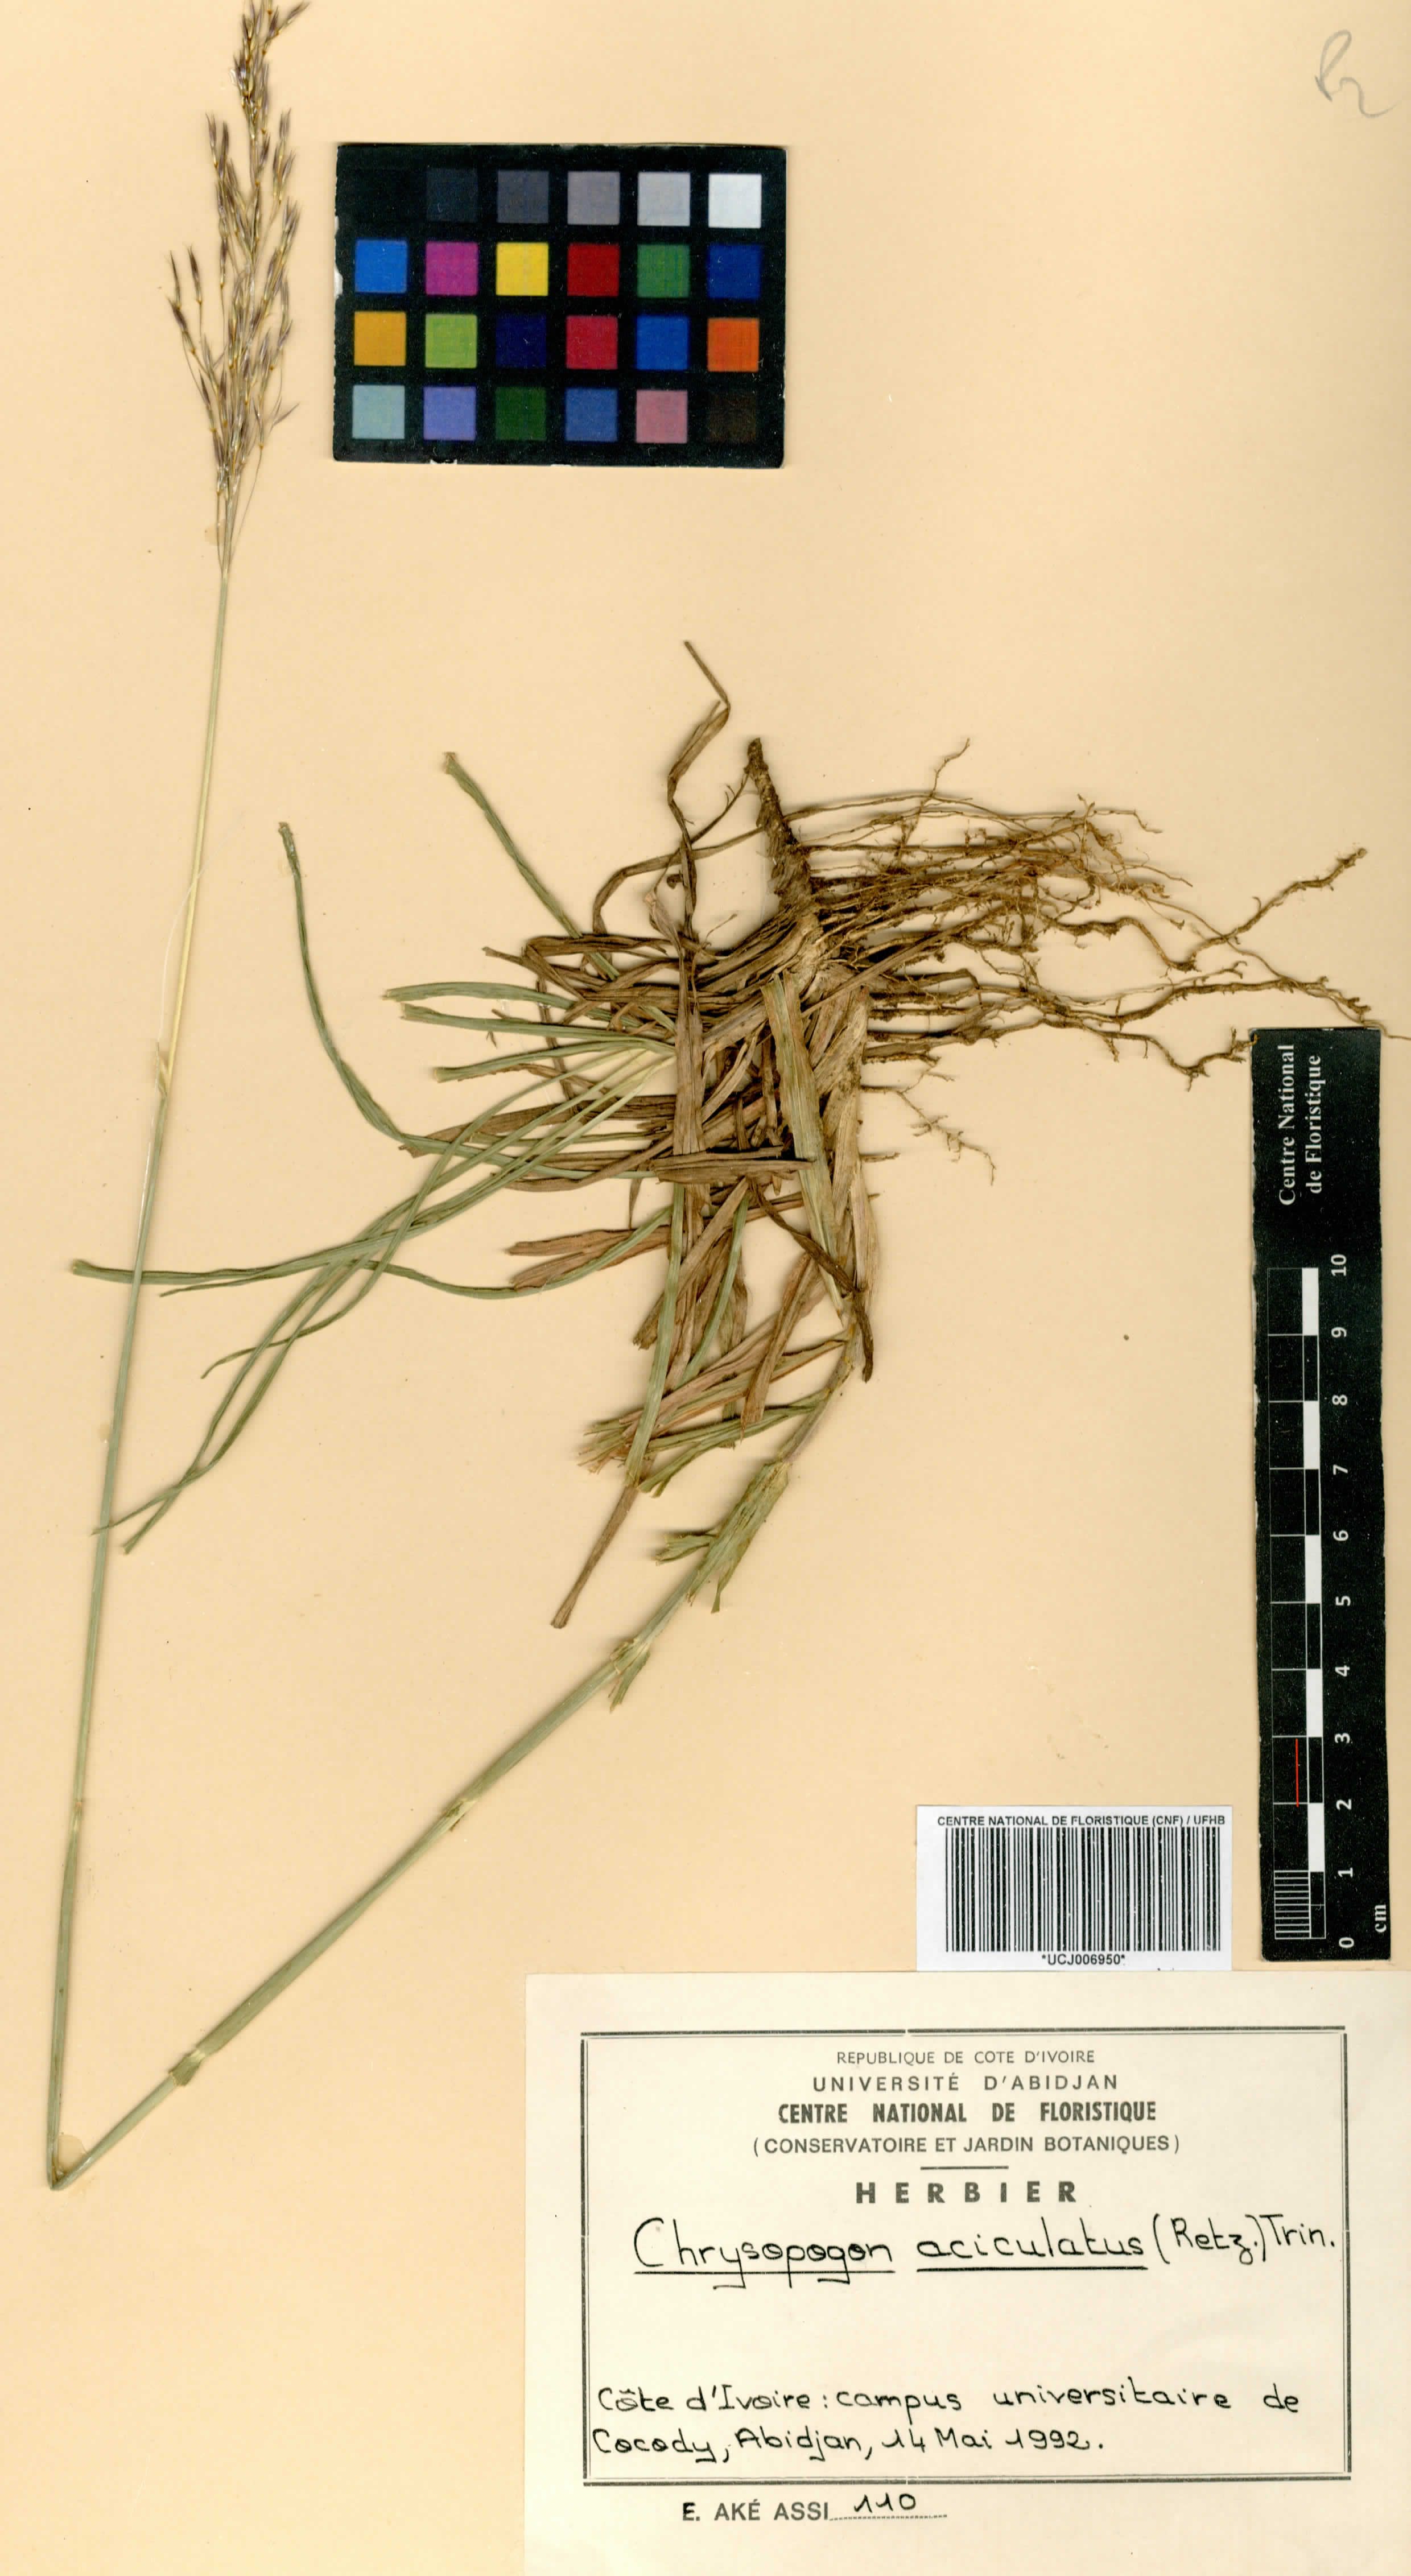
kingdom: Plantae
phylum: Tracheophyta
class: Liliopsida
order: Poales
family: Poaceae
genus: Chrysopogon
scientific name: Chrysopogon aciculatus
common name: Pilipiliula
